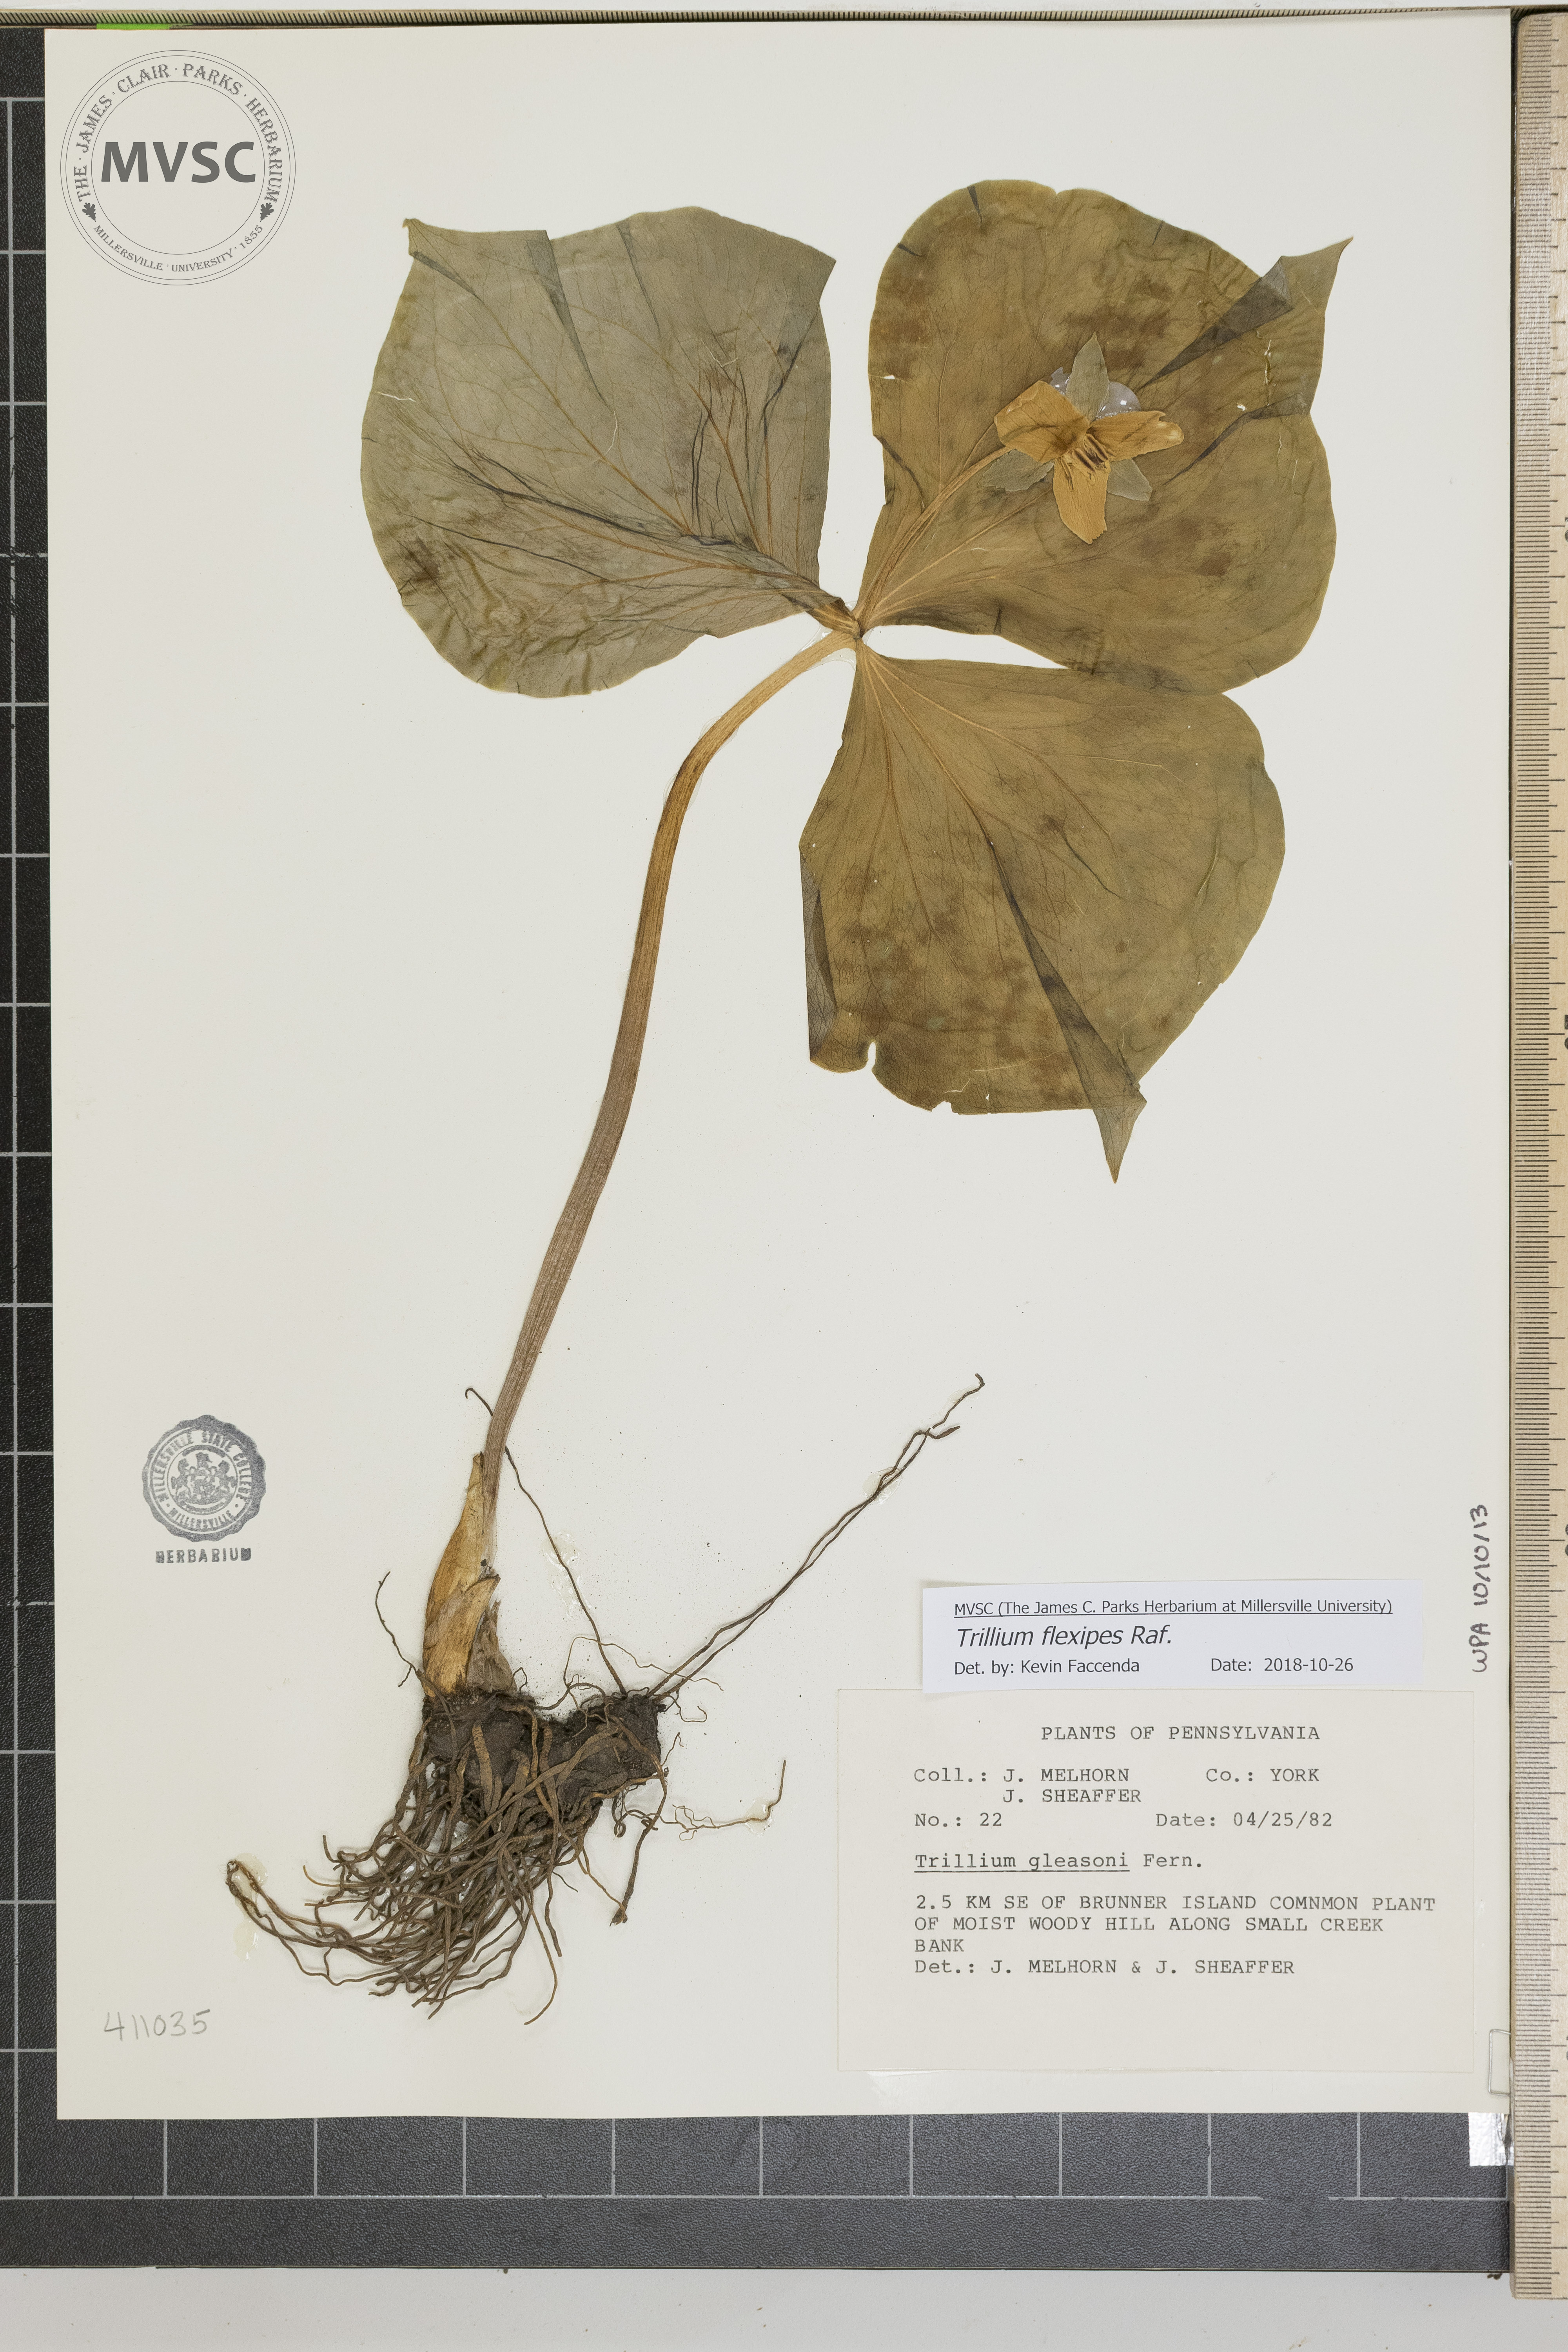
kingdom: Plantae
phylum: Tracheophyta
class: Liliopsida
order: Liliales
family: Melanthiaceae
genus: Trillium
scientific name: Trillium flexipes
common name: Drooping trillium
